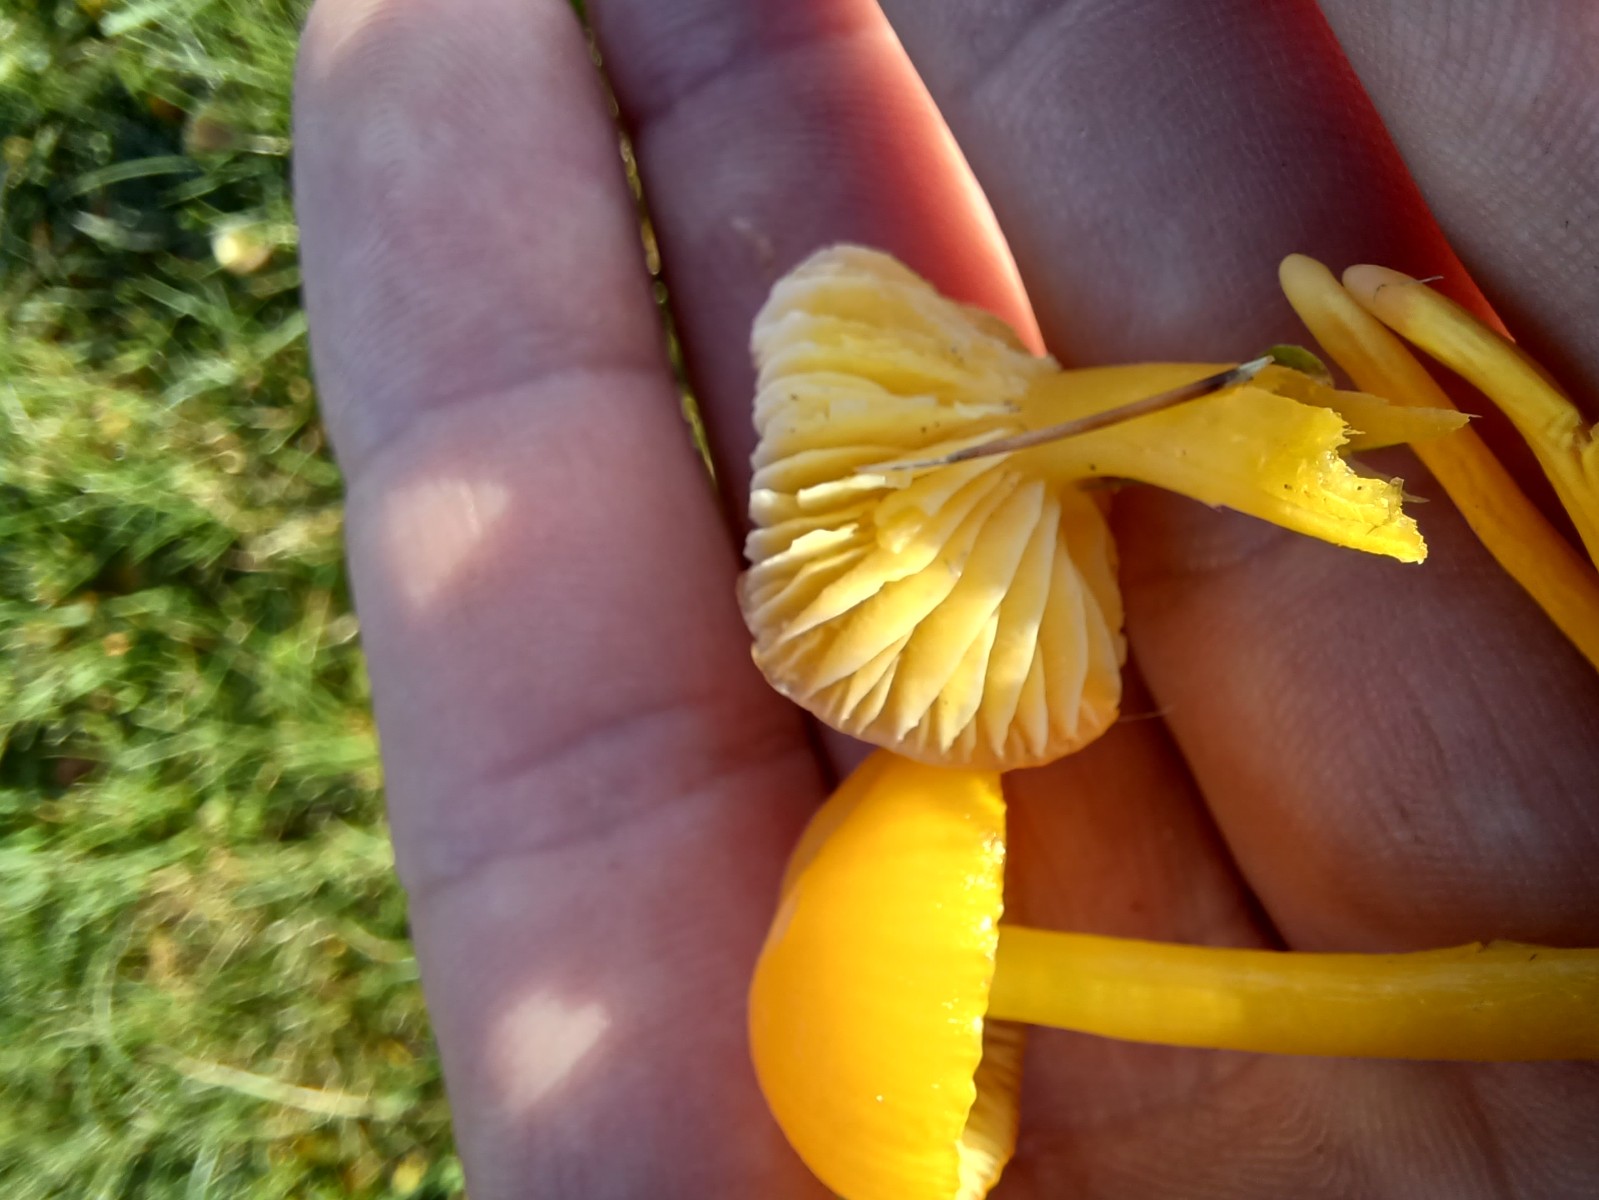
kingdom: Fungi
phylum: Basidiomycota
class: Agaricomycetes
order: Agaricales
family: Hygrophoraceae
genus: Hygrocybe
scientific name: Hygrocybe ceracea
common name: voksgul vokshat
